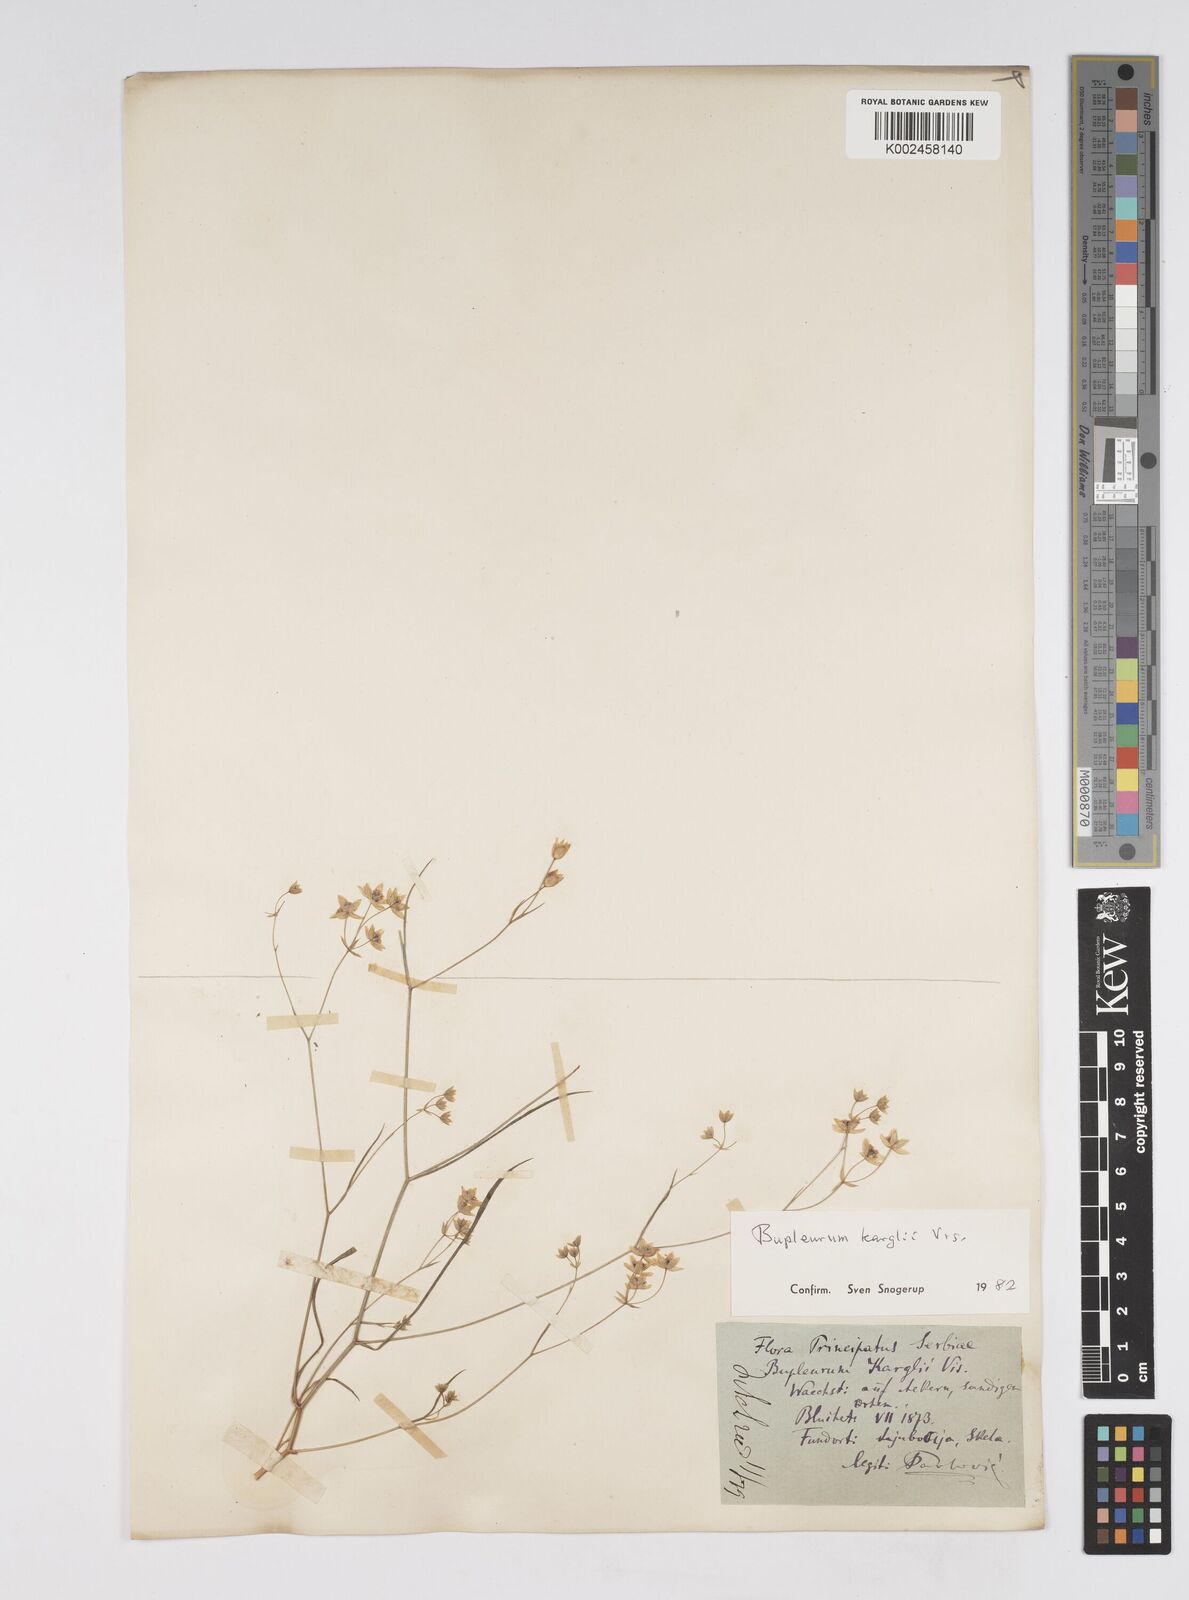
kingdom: Plantae
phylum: Tracheophyta
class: Magnoliopsida
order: Apiales
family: Apiaceae
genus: Bupleurum
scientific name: Bupleurum karglii
